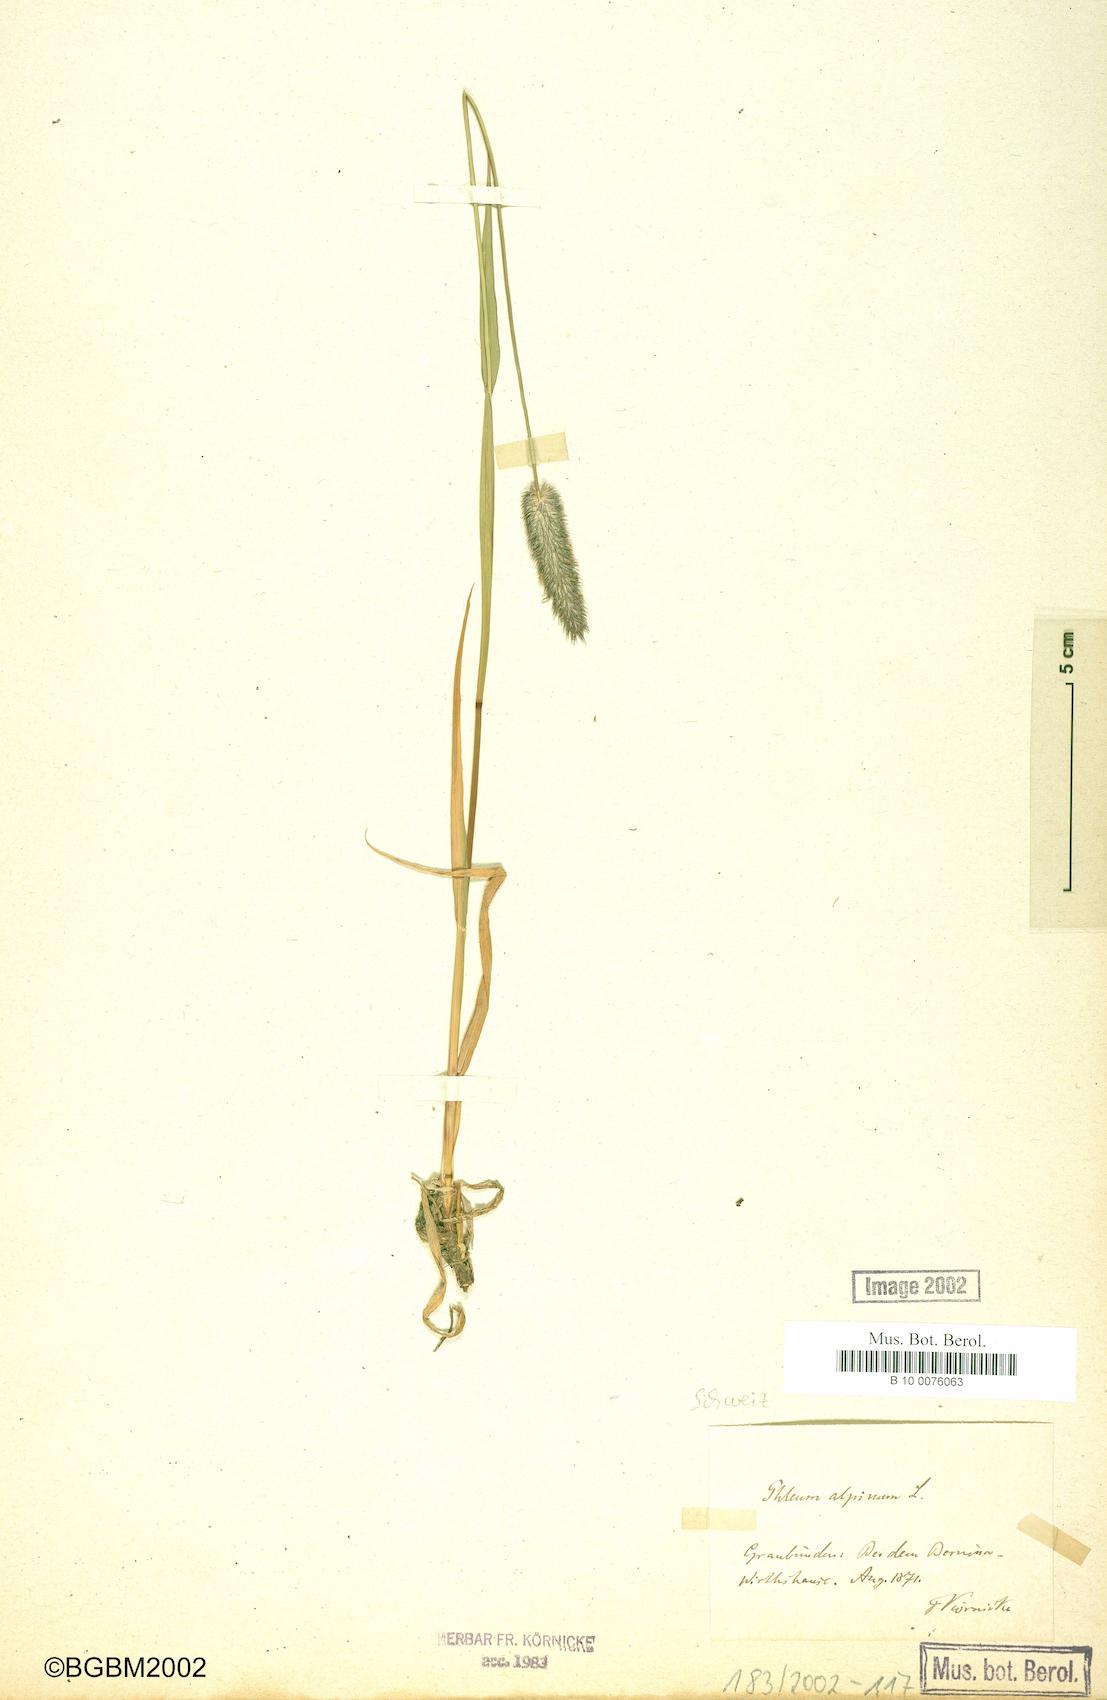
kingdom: Plantae
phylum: Tracheophyta
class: Liliopsida
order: Poales
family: Poaceae
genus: Phleum
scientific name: Phleum alpinum
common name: Alpine cat's-tail
